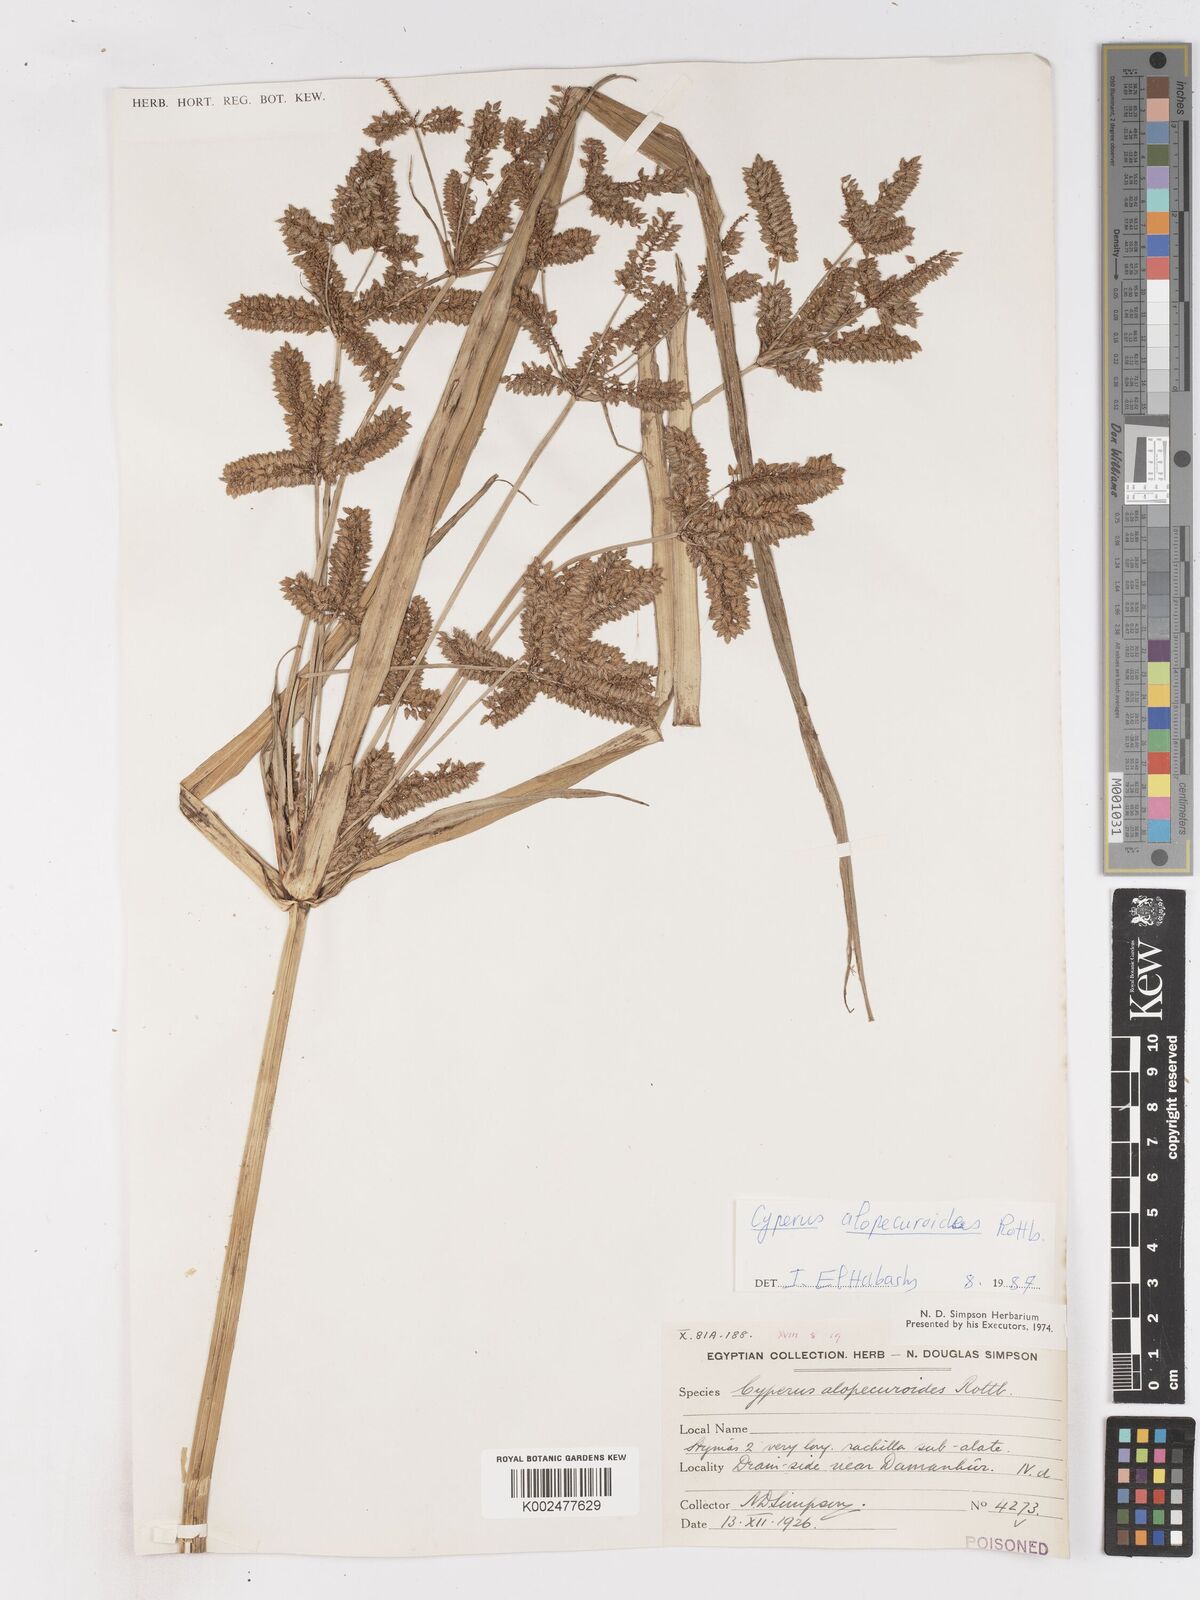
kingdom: Plantae
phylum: Tracheophyta
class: Liliopsida
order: Poales
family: Cyperaceae
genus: Cyperus
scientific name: Cyperus
